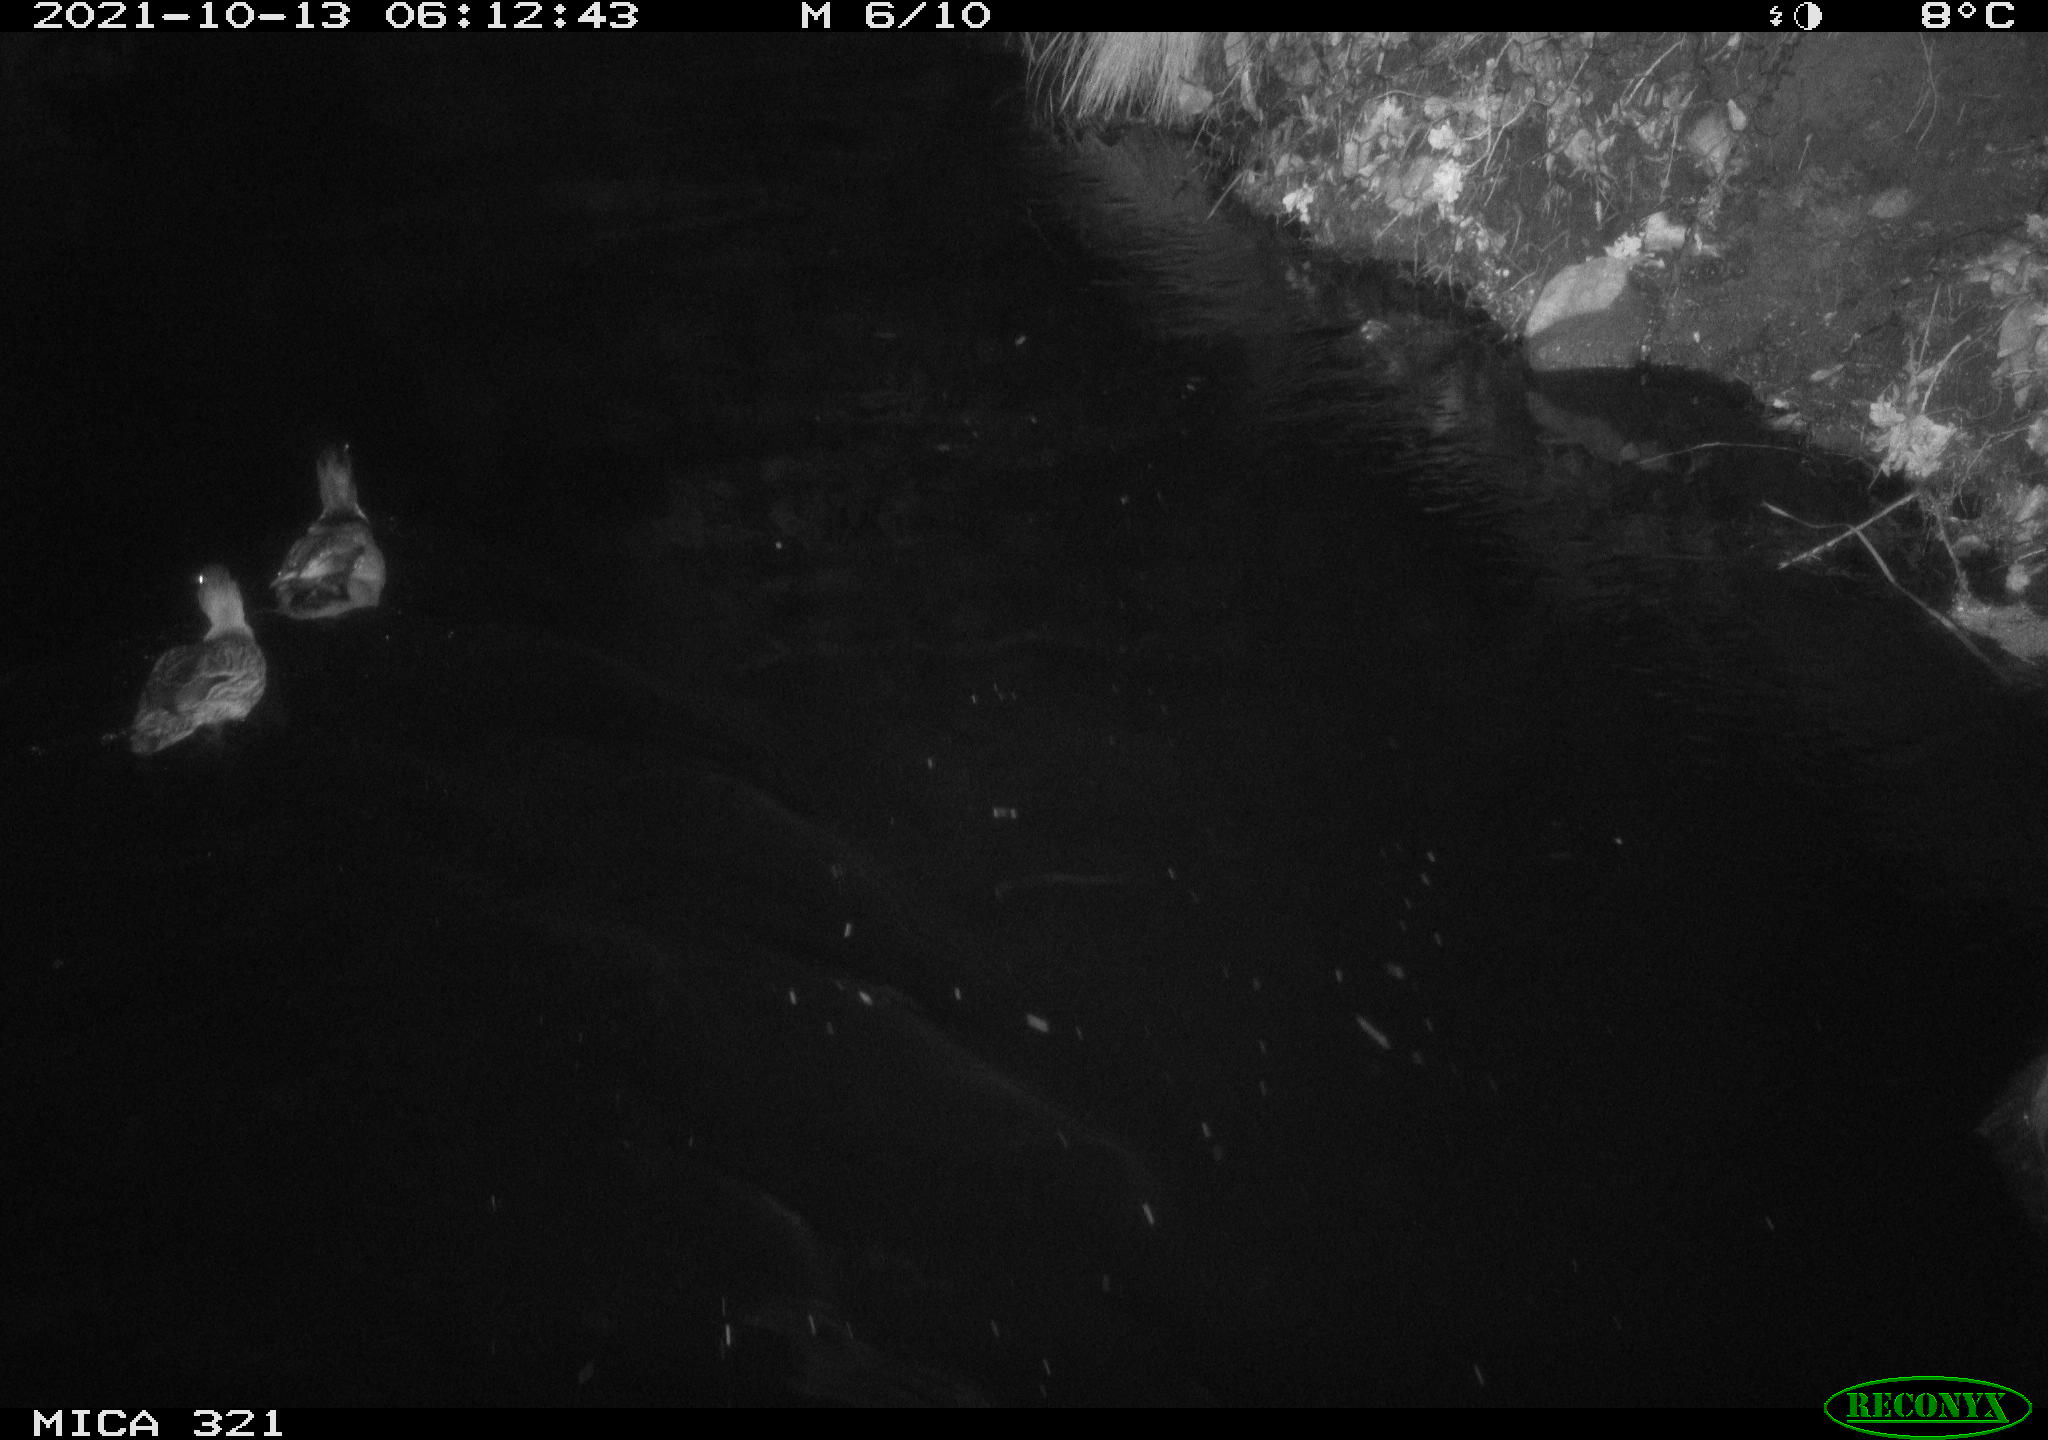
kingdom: Animalia
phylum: Chordata
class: Aves
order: Anseriformes
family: Anatidae
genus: Anas
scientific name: Anas platyrhynchos
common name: Mallard
